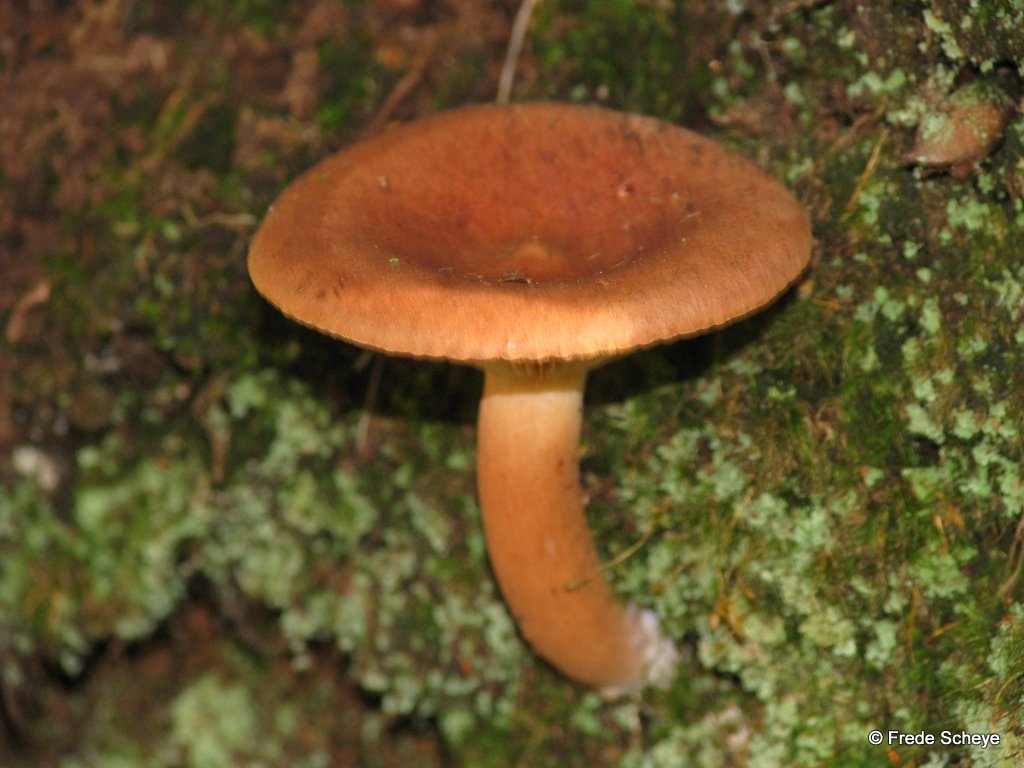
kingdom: Fungi
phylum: Basidiomycota
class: Agaricomycetes
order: Russulales
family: Russulaceae
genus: Lactarius
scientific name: Lactarius rufus
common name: rødbrun mælkehat
